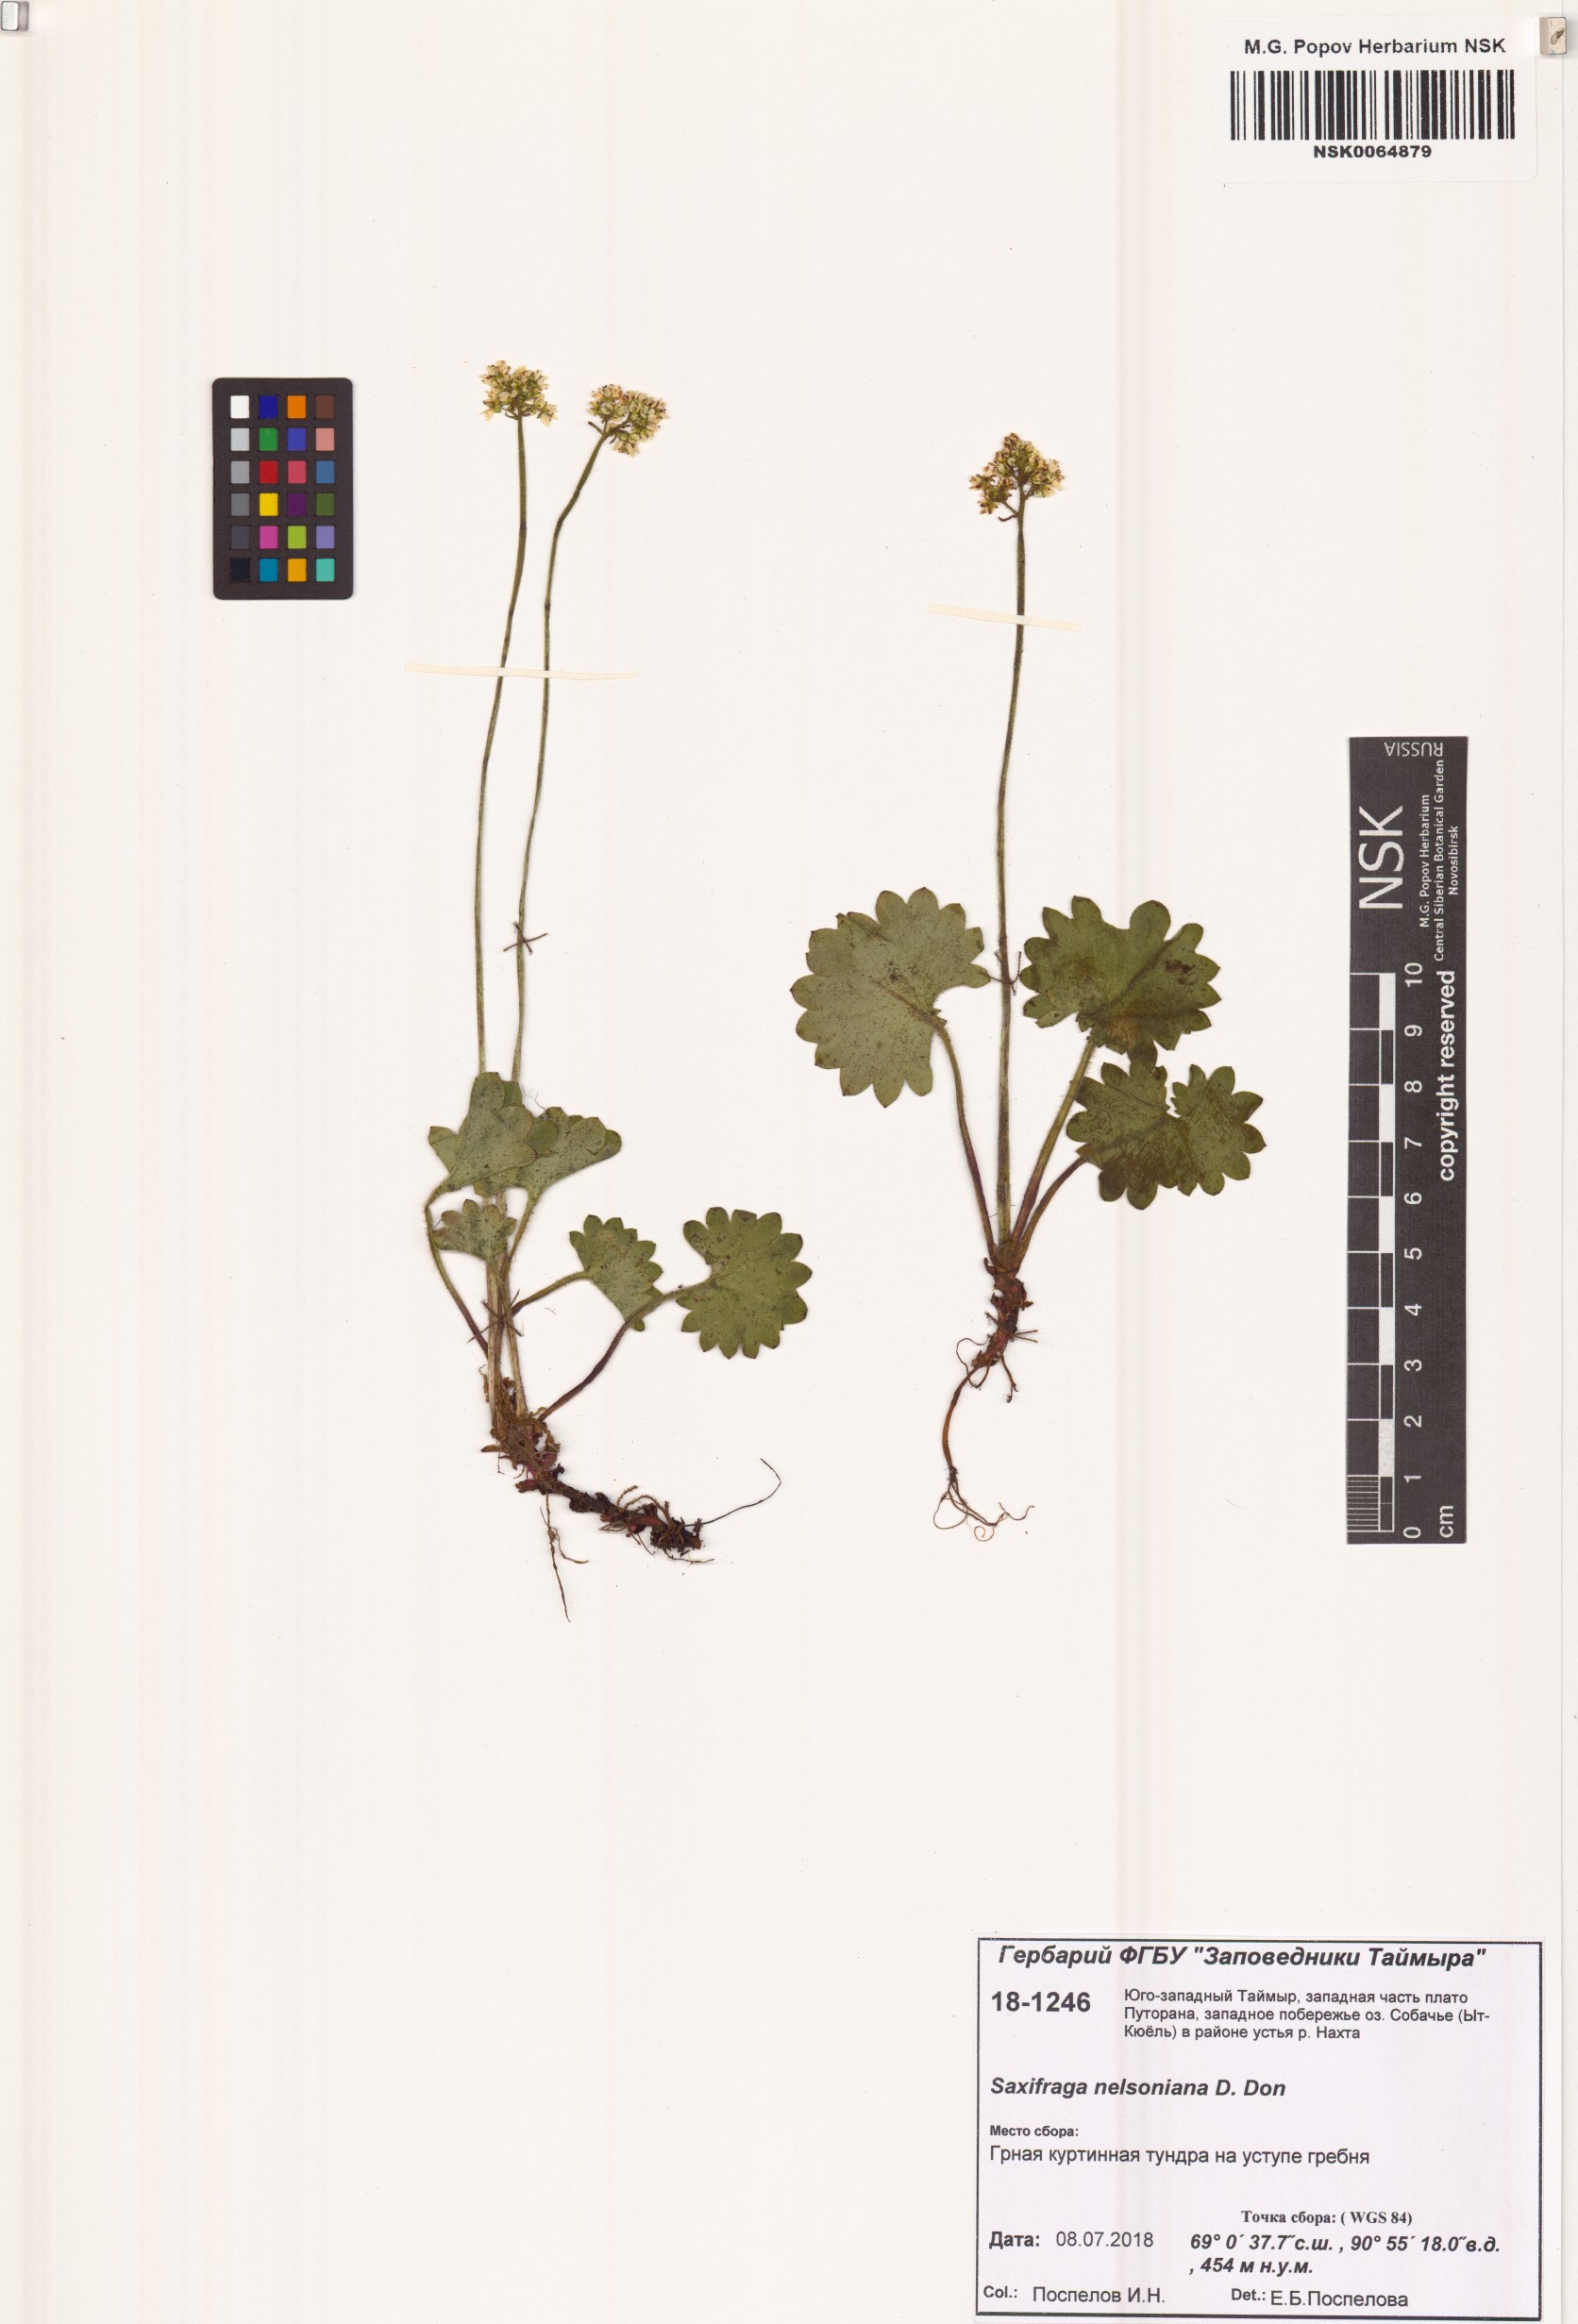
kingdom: Plantae
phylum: Tracheophyta
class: Magnoliopsida
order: Saxifragales
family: Saxifragaceae
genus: Micranthes
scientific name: Micranthes nelsoniana
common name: Nelson's saxifrage
